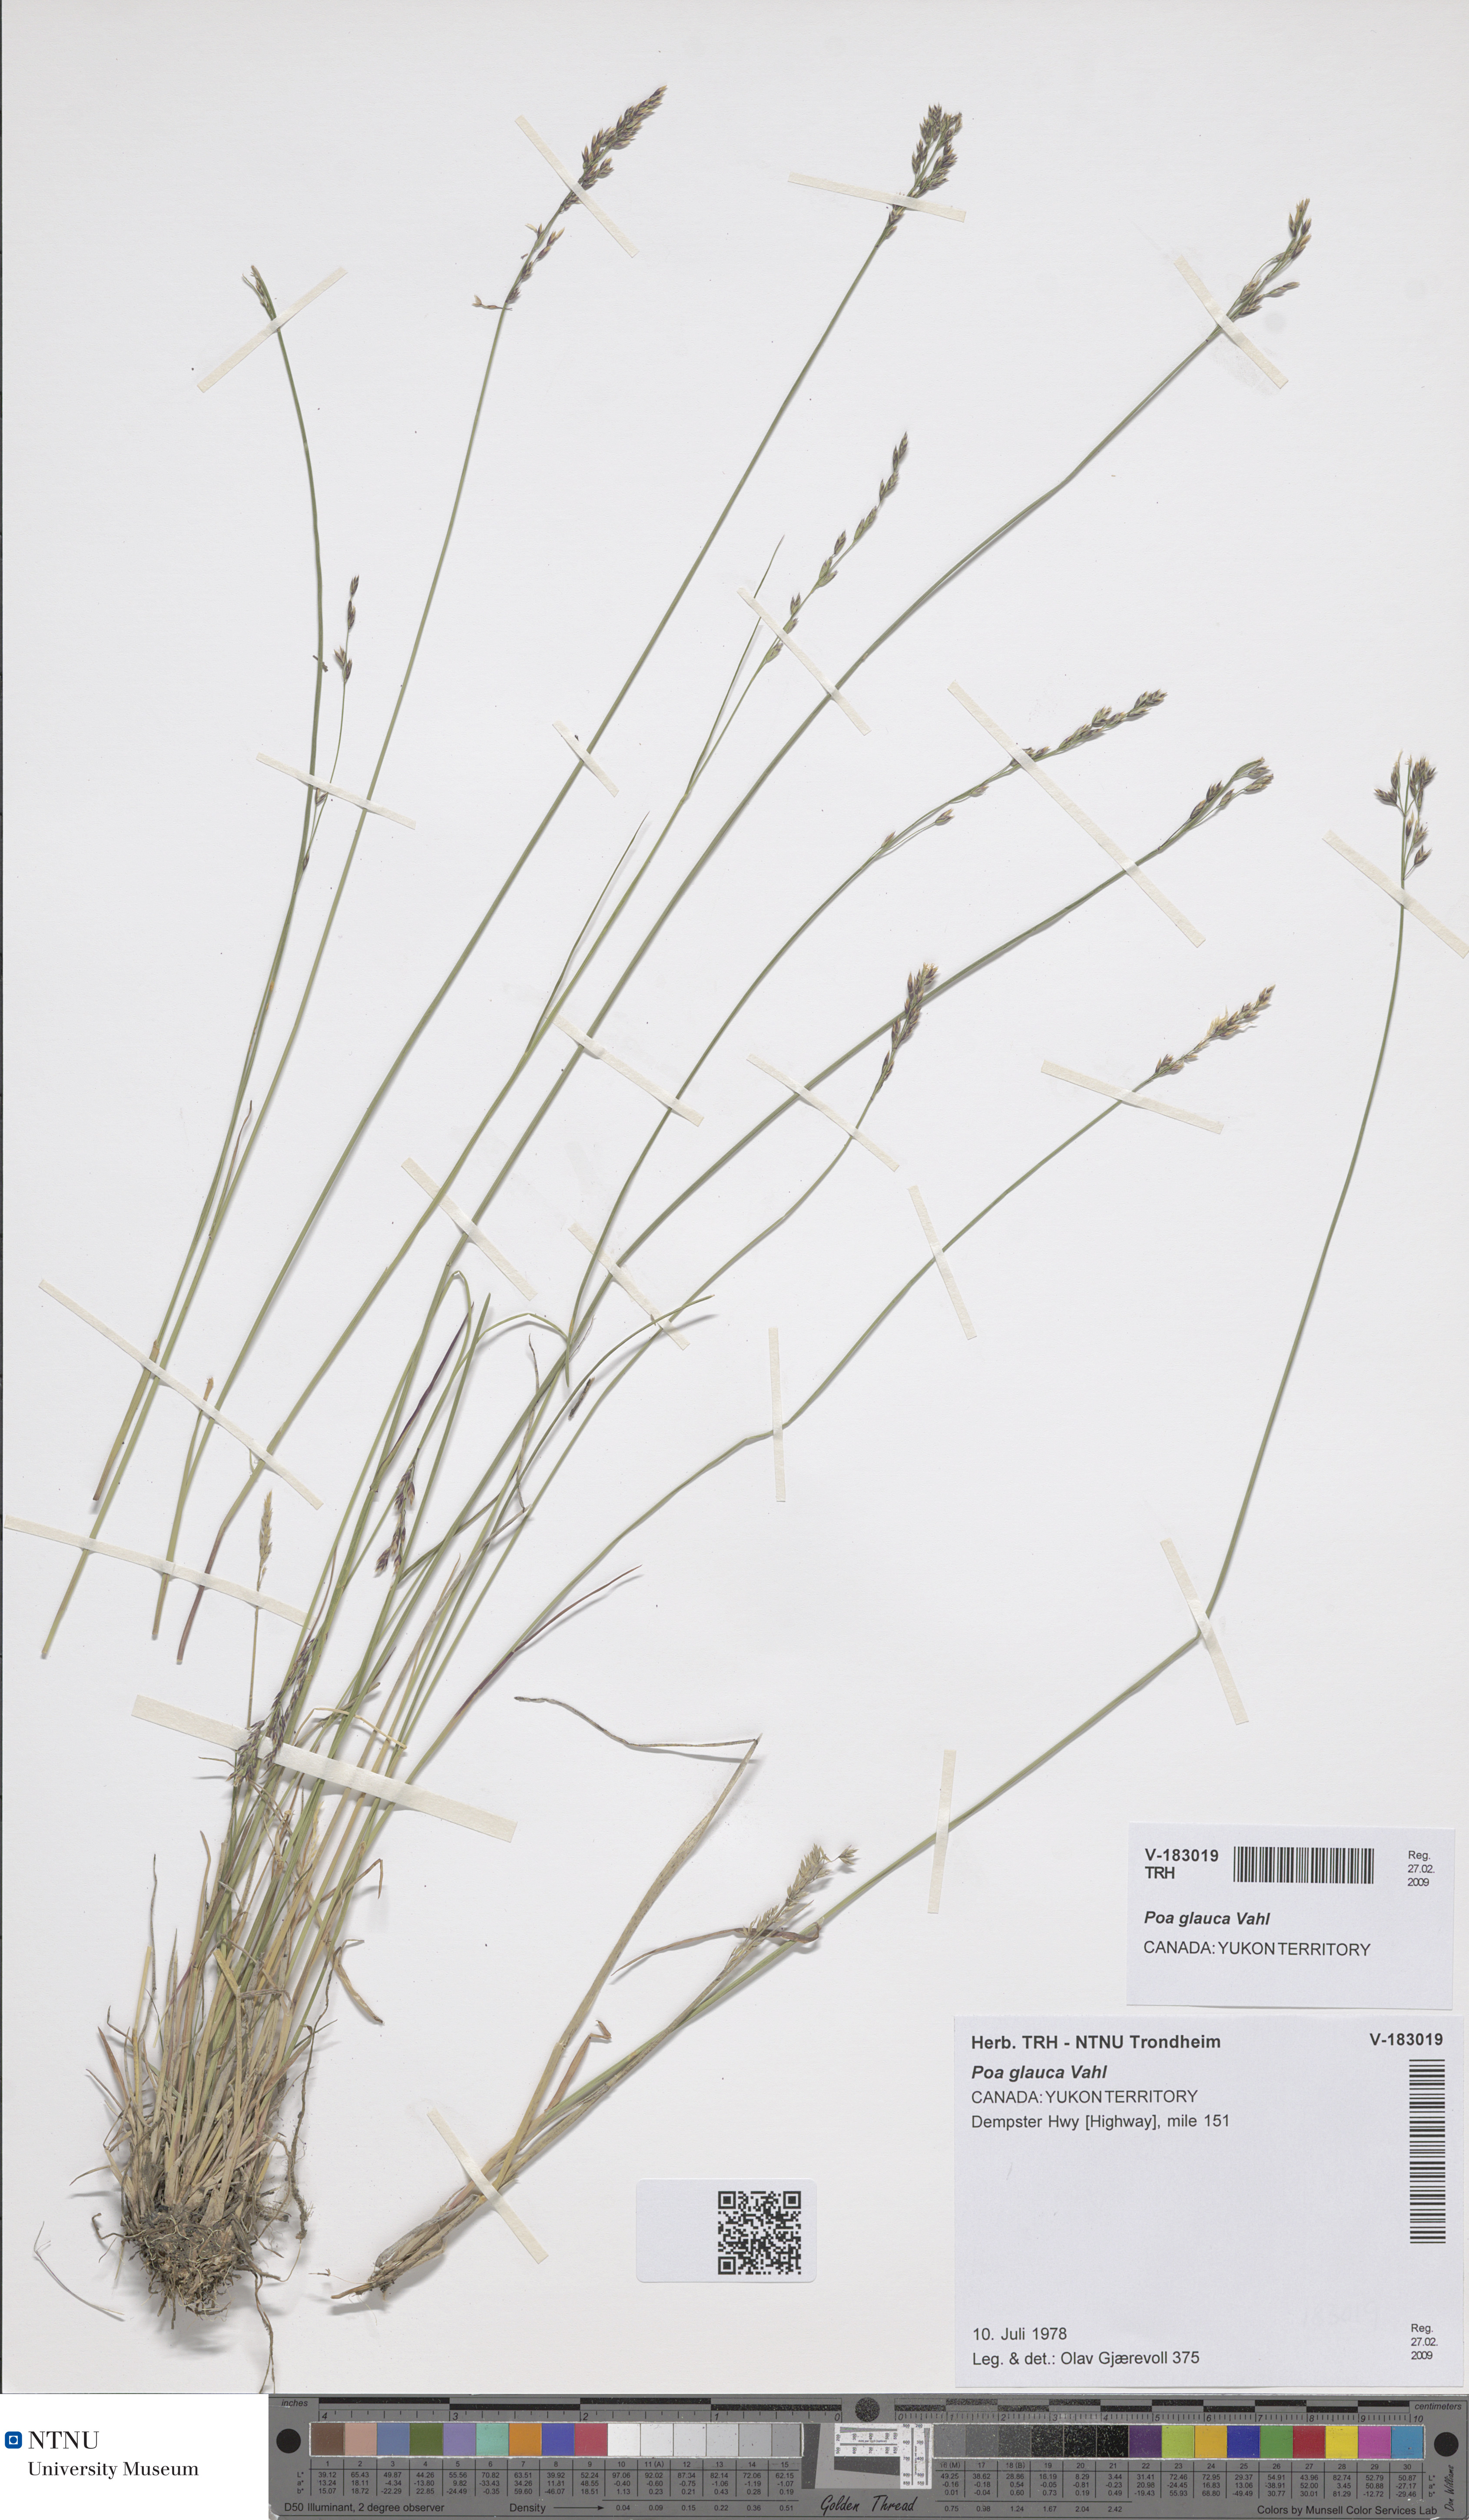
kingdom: Plantae
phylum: Tracheophyta
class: Liliopsida
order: Poales
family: Poaceae
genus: Poa
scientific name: Poa glauca
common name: Glaucous bluegrass
